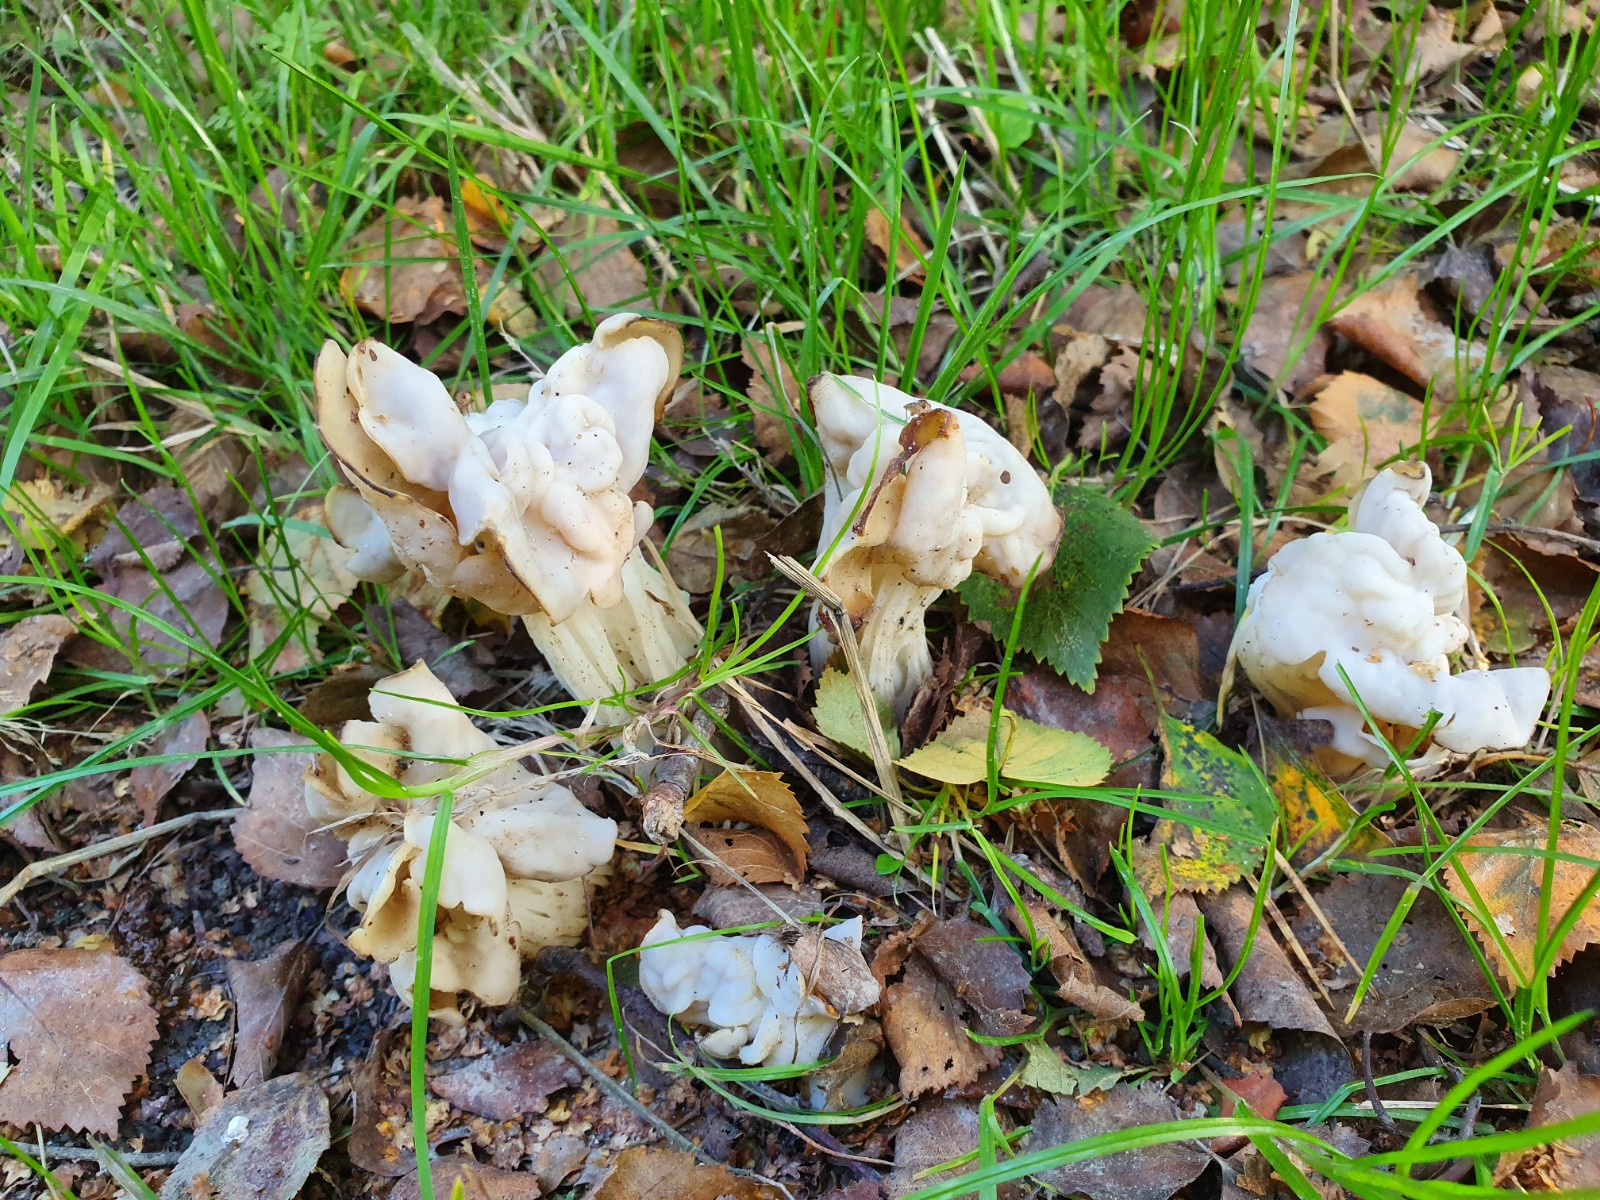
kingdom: Fungi
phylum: Ascomycota
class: Pezizomycetes
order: Pezizales
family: Helvellaceae
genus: Helvella
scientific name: Helvella crispa
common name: kruset foldhat
